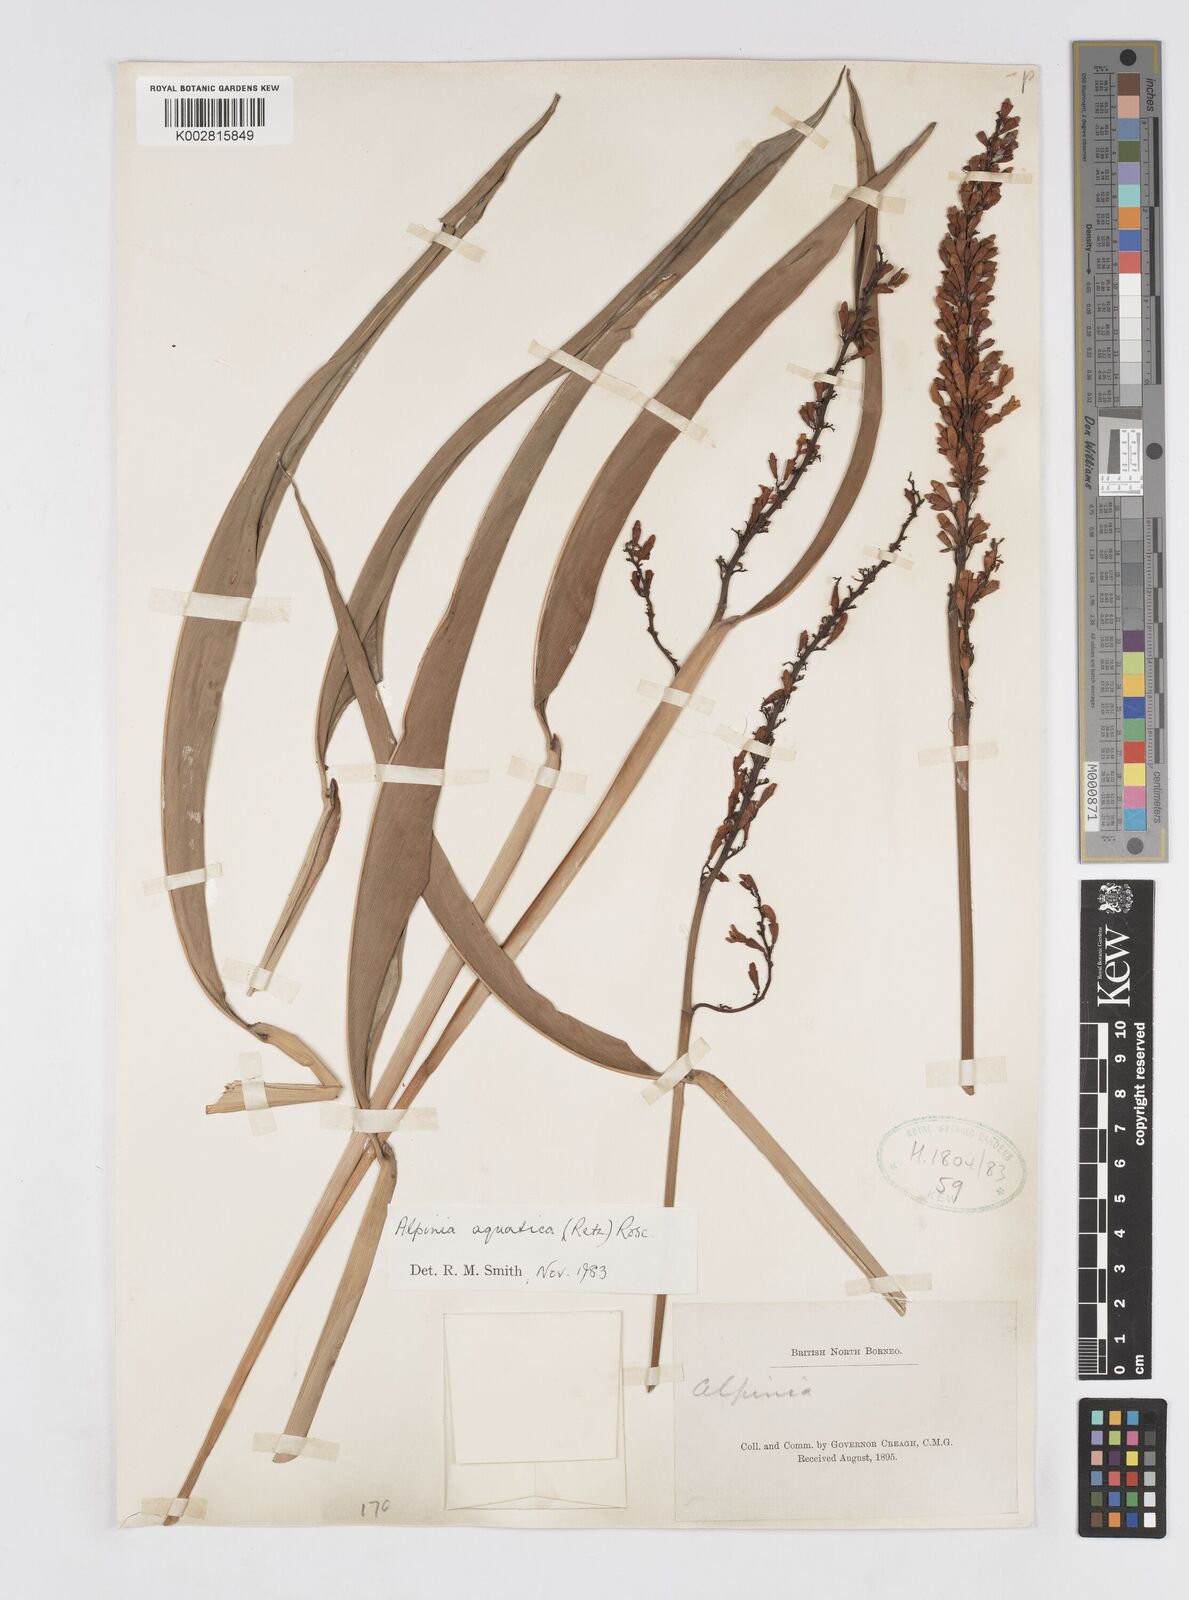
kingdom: Plantae
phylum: Tracheophyta
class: Liliopsida
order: Zingiberales
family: Zingiberaceae
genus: Alpinia
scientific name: Alpinia aquatica
